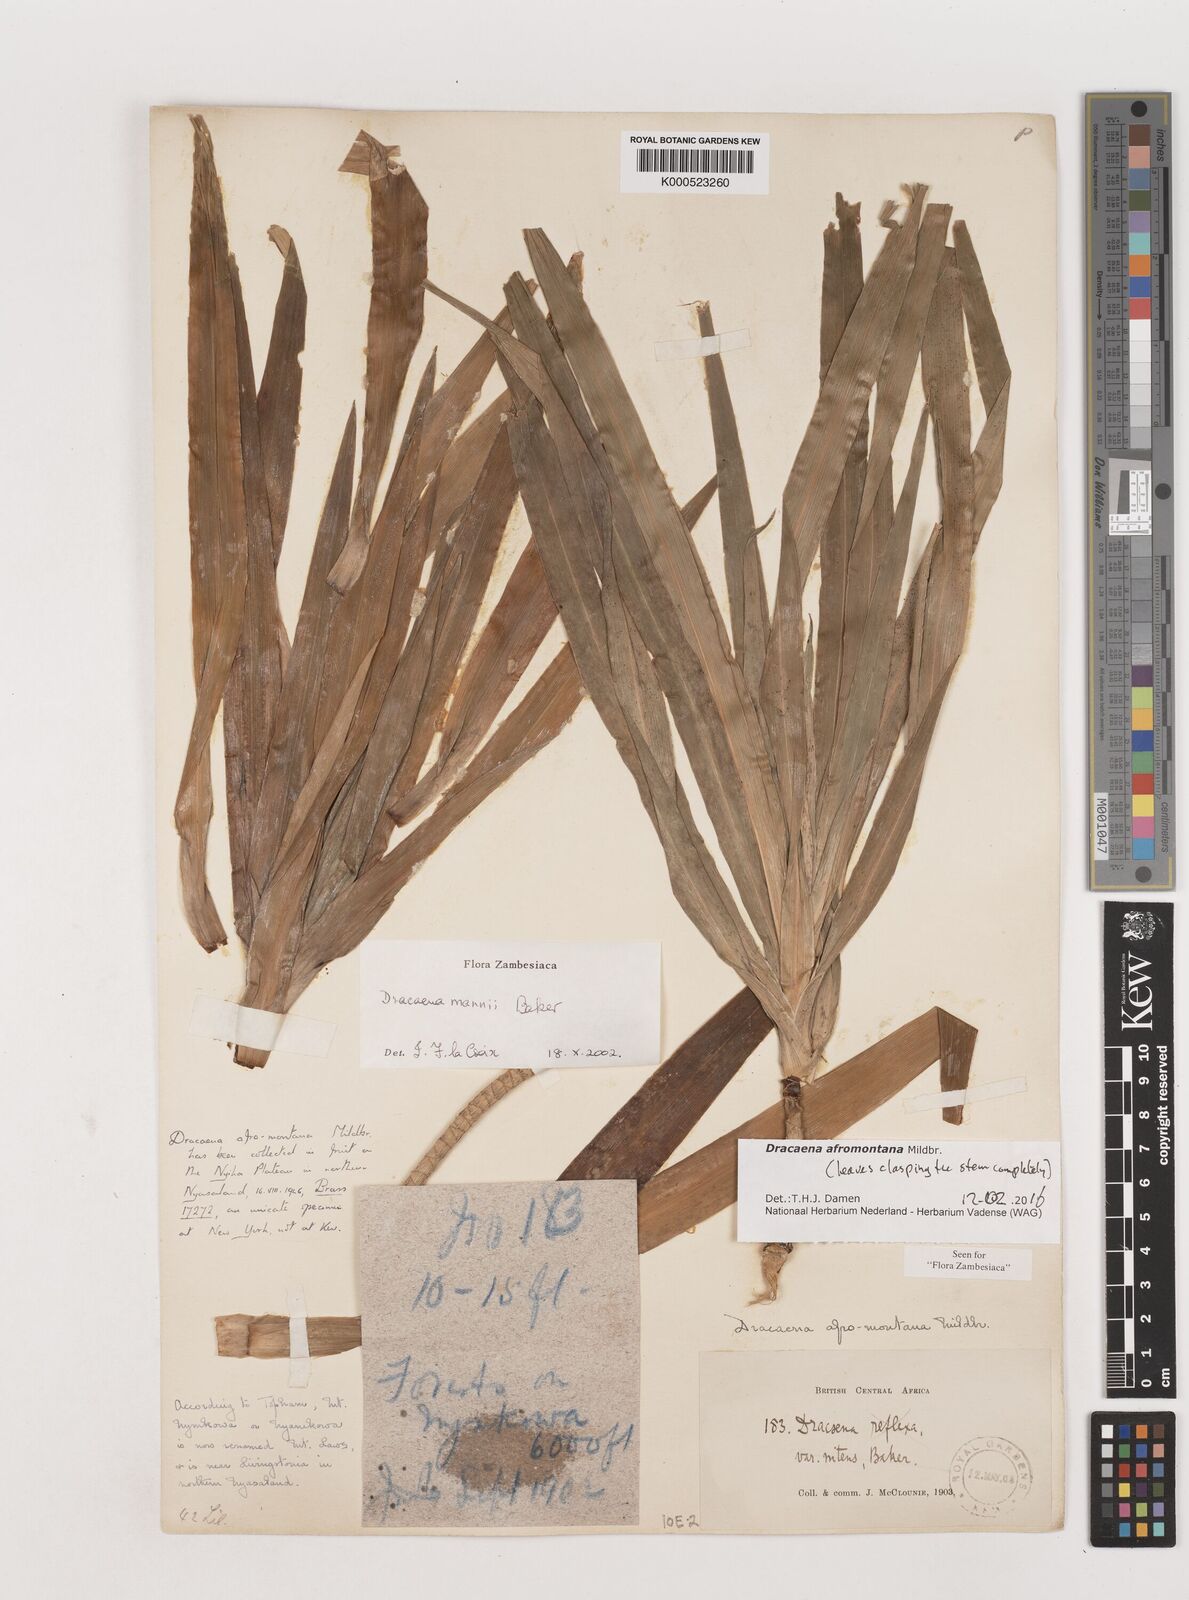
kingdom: Plantae
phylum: Tracheophyta
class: Liliopsida
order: Asparagales
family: Asparagaceae
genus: Dracaena
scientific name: Dracaena afromontana
